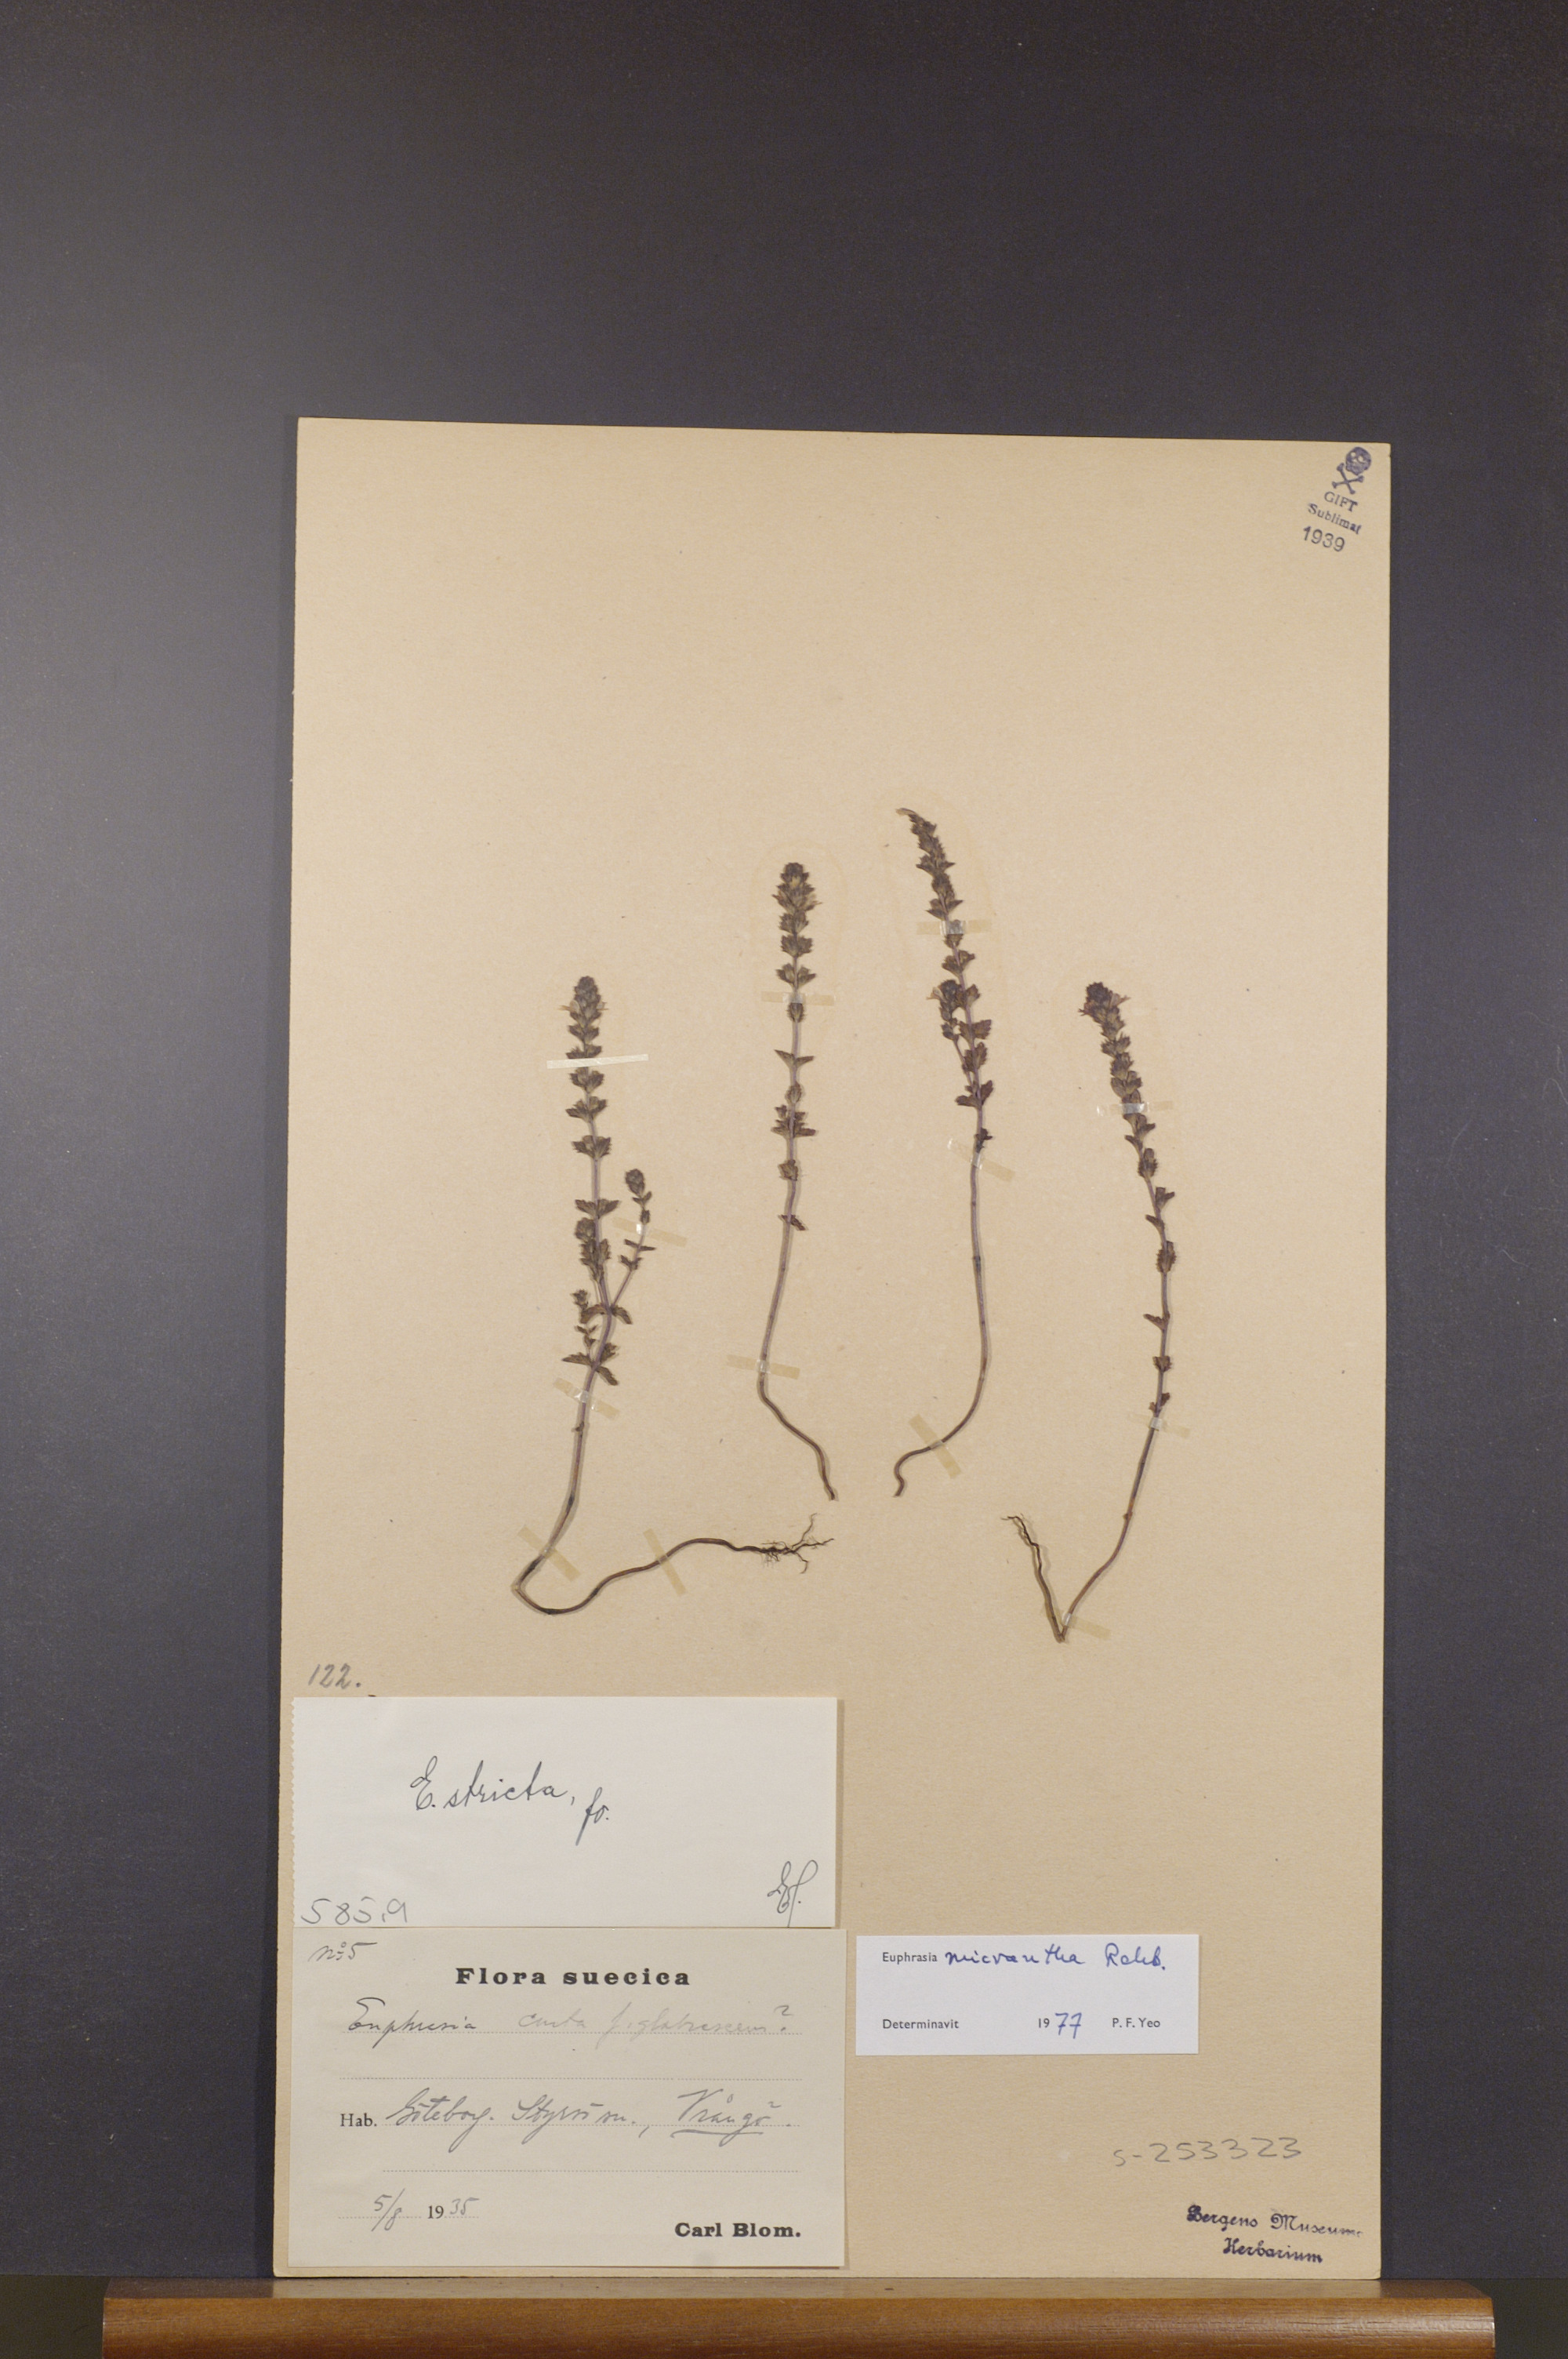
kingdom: Plantae
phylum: Tracheophyta
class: Magnoliopsida
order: Lamiales
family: Orobanchaceae
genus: Euphrasia
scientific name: Euphrasia micrantha
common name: Northern eyebright
